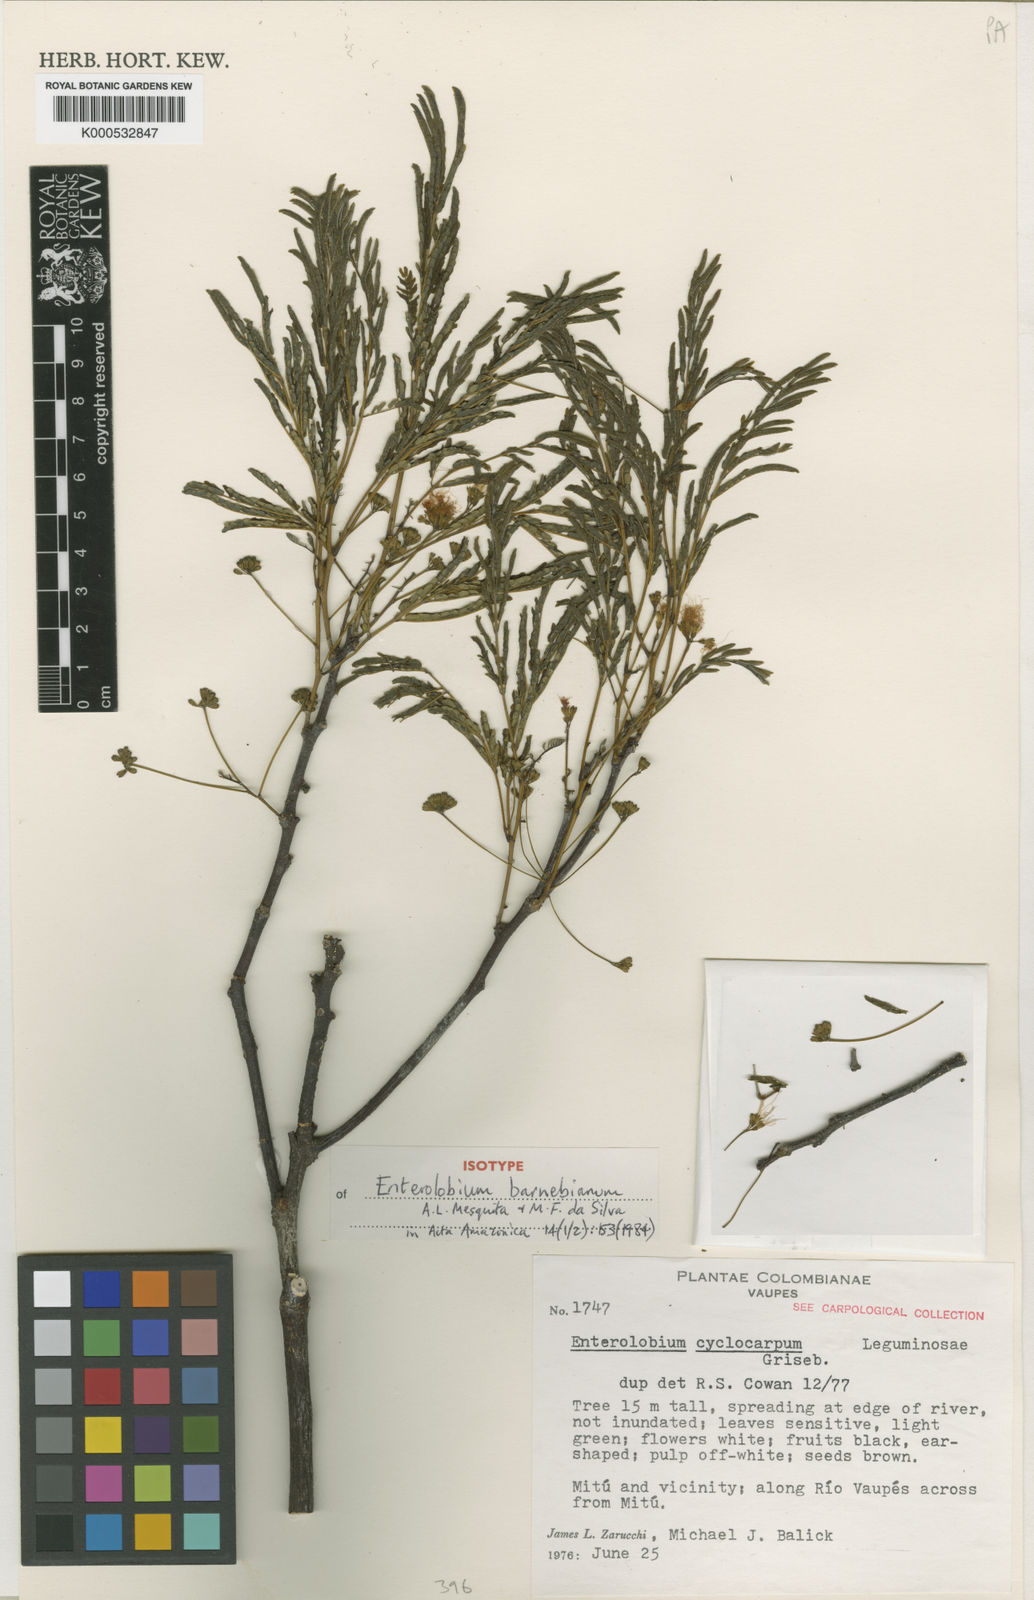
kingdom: Plantae
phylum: Tracheophyta
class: Magnoliopsida
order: Fabales
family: Fabaceae
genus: Enterolobium
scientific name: Enterolobium barnebianum
